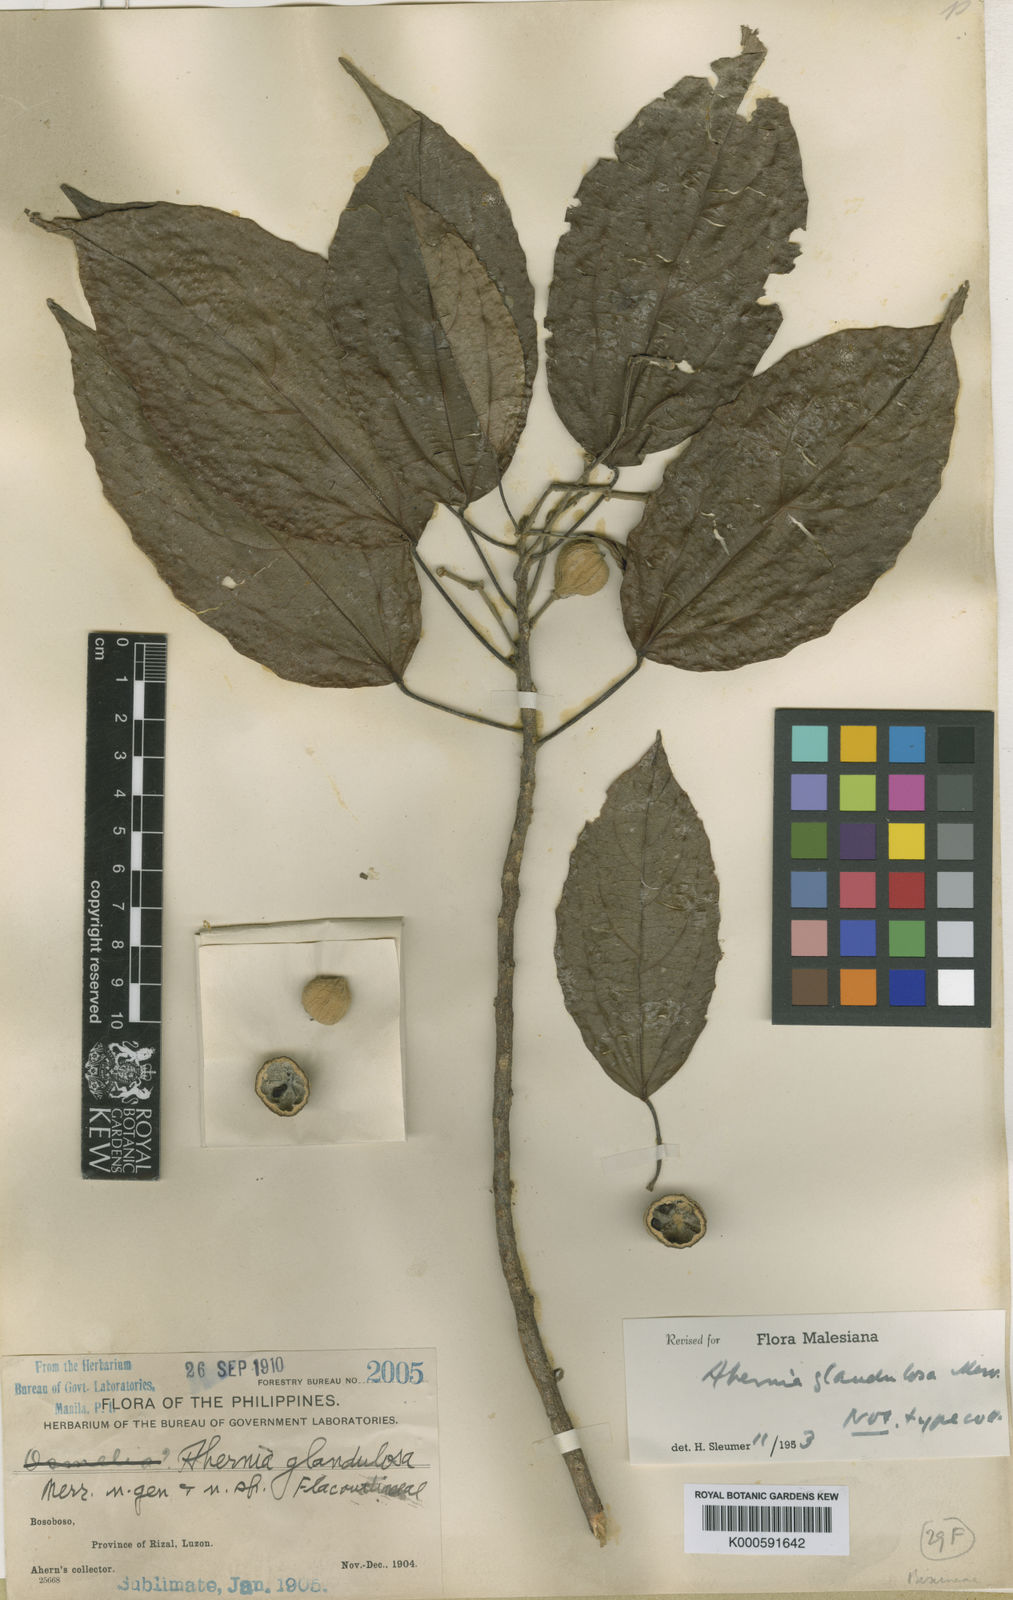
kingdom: Plantae
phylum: Tracheophyta
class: Magnoliopsida
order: Malpighiales
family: Achariaceae
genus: Ahernia
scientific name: Ahernia
